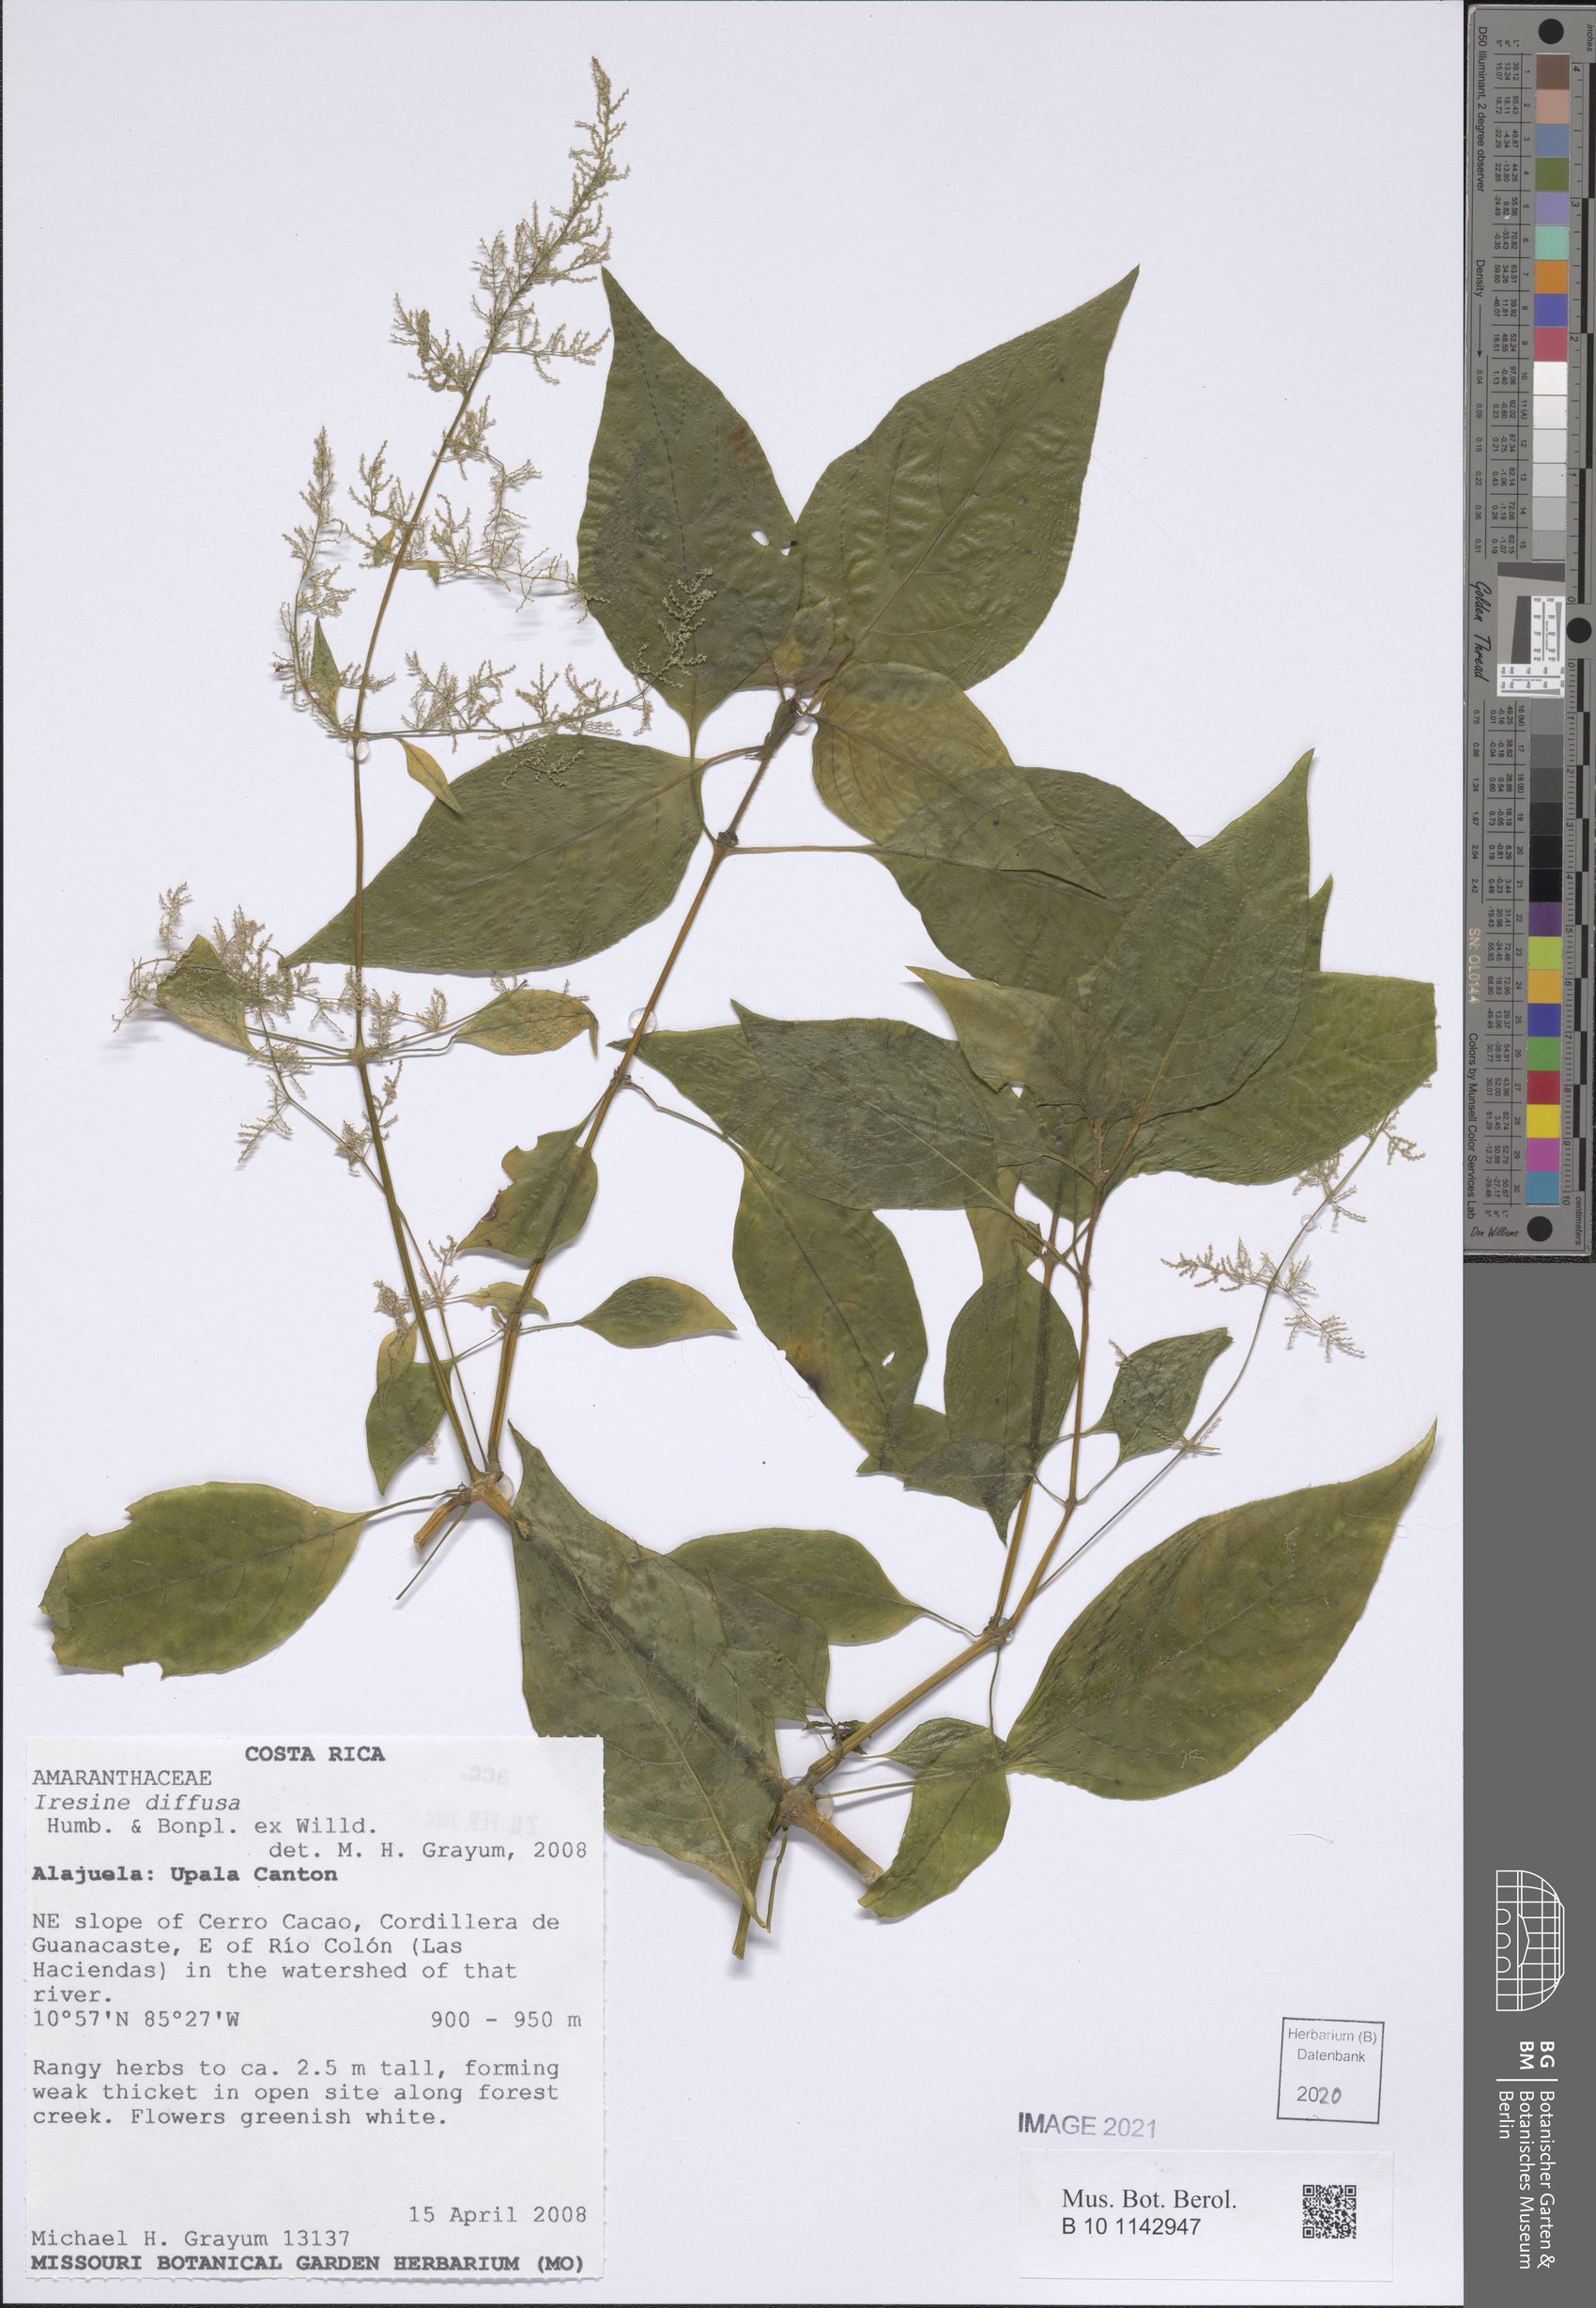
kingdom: Plantae
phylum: Tracheophyta
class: Magnoliopsida
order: Caryophyllales
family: Amaranthaceae
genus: Iresine
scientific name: Iresine diffusa
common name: Juba's-bush
